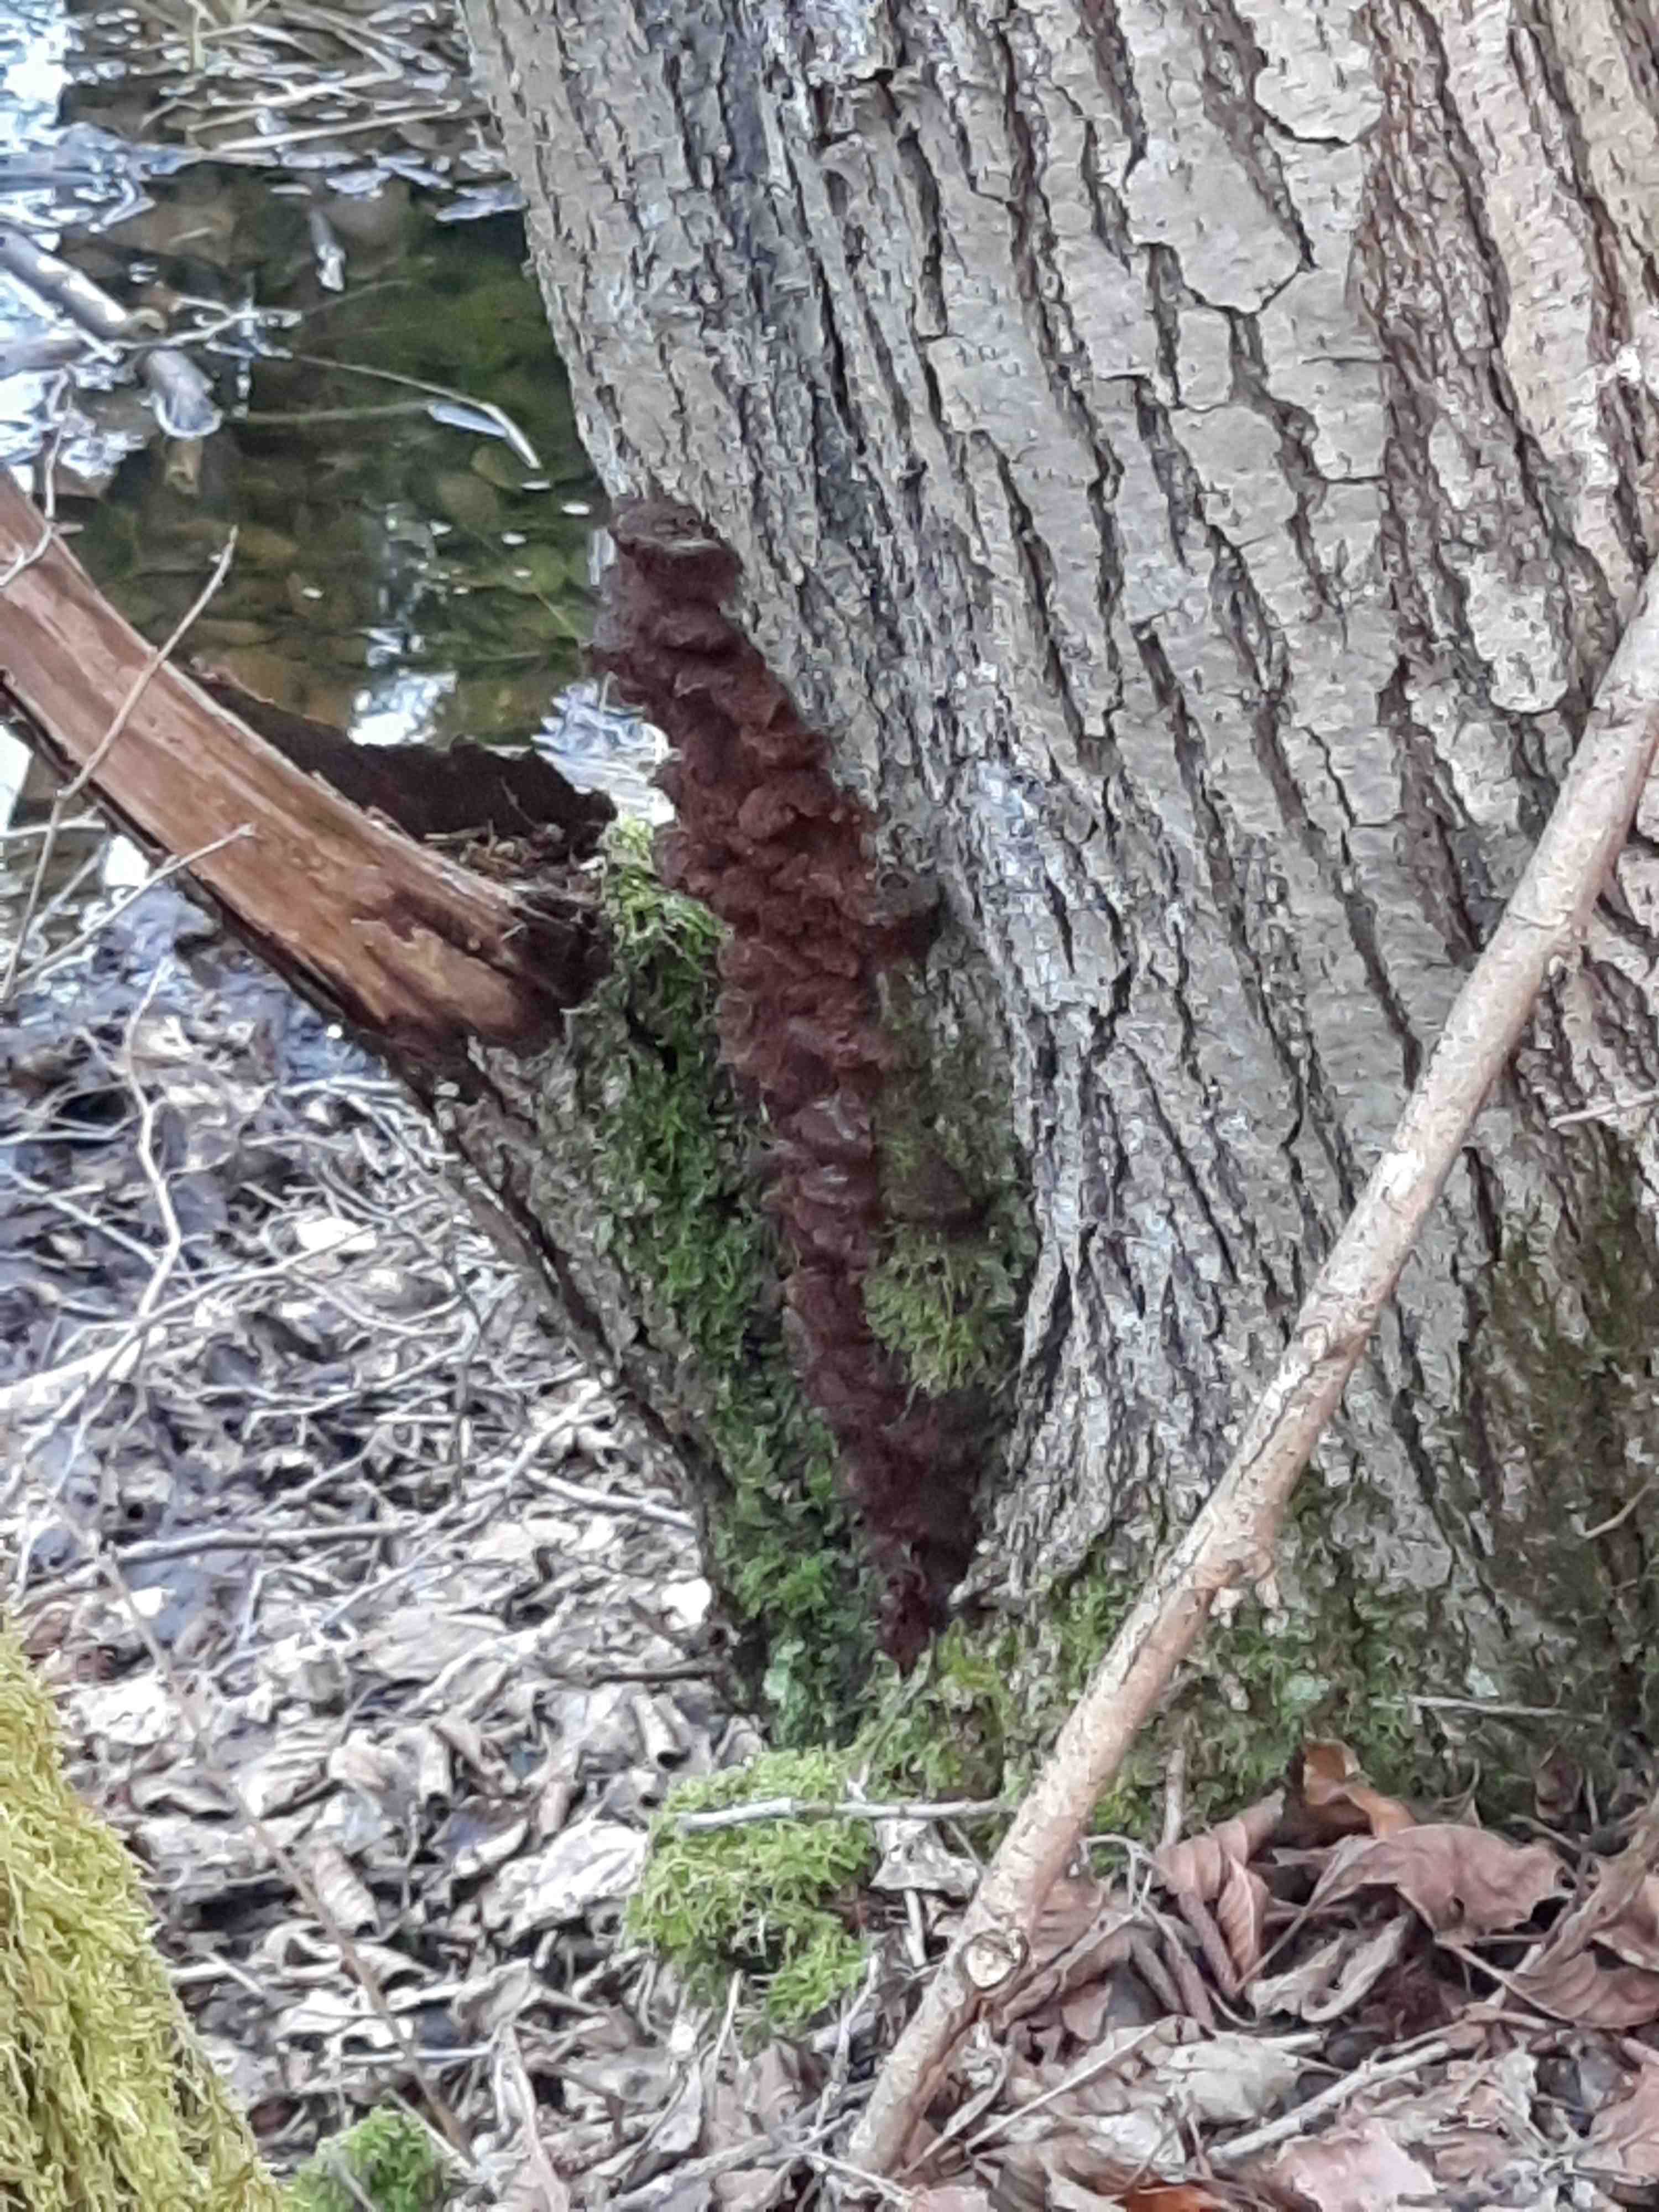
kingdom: Fungi
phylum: Basidiomycota
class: Agaricomycetes
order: Hymenochaetales
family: Hymenochaetaceae
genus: Xanthoporia
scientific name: Xanthoporia radiata
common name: elle-spejlporesvamp
